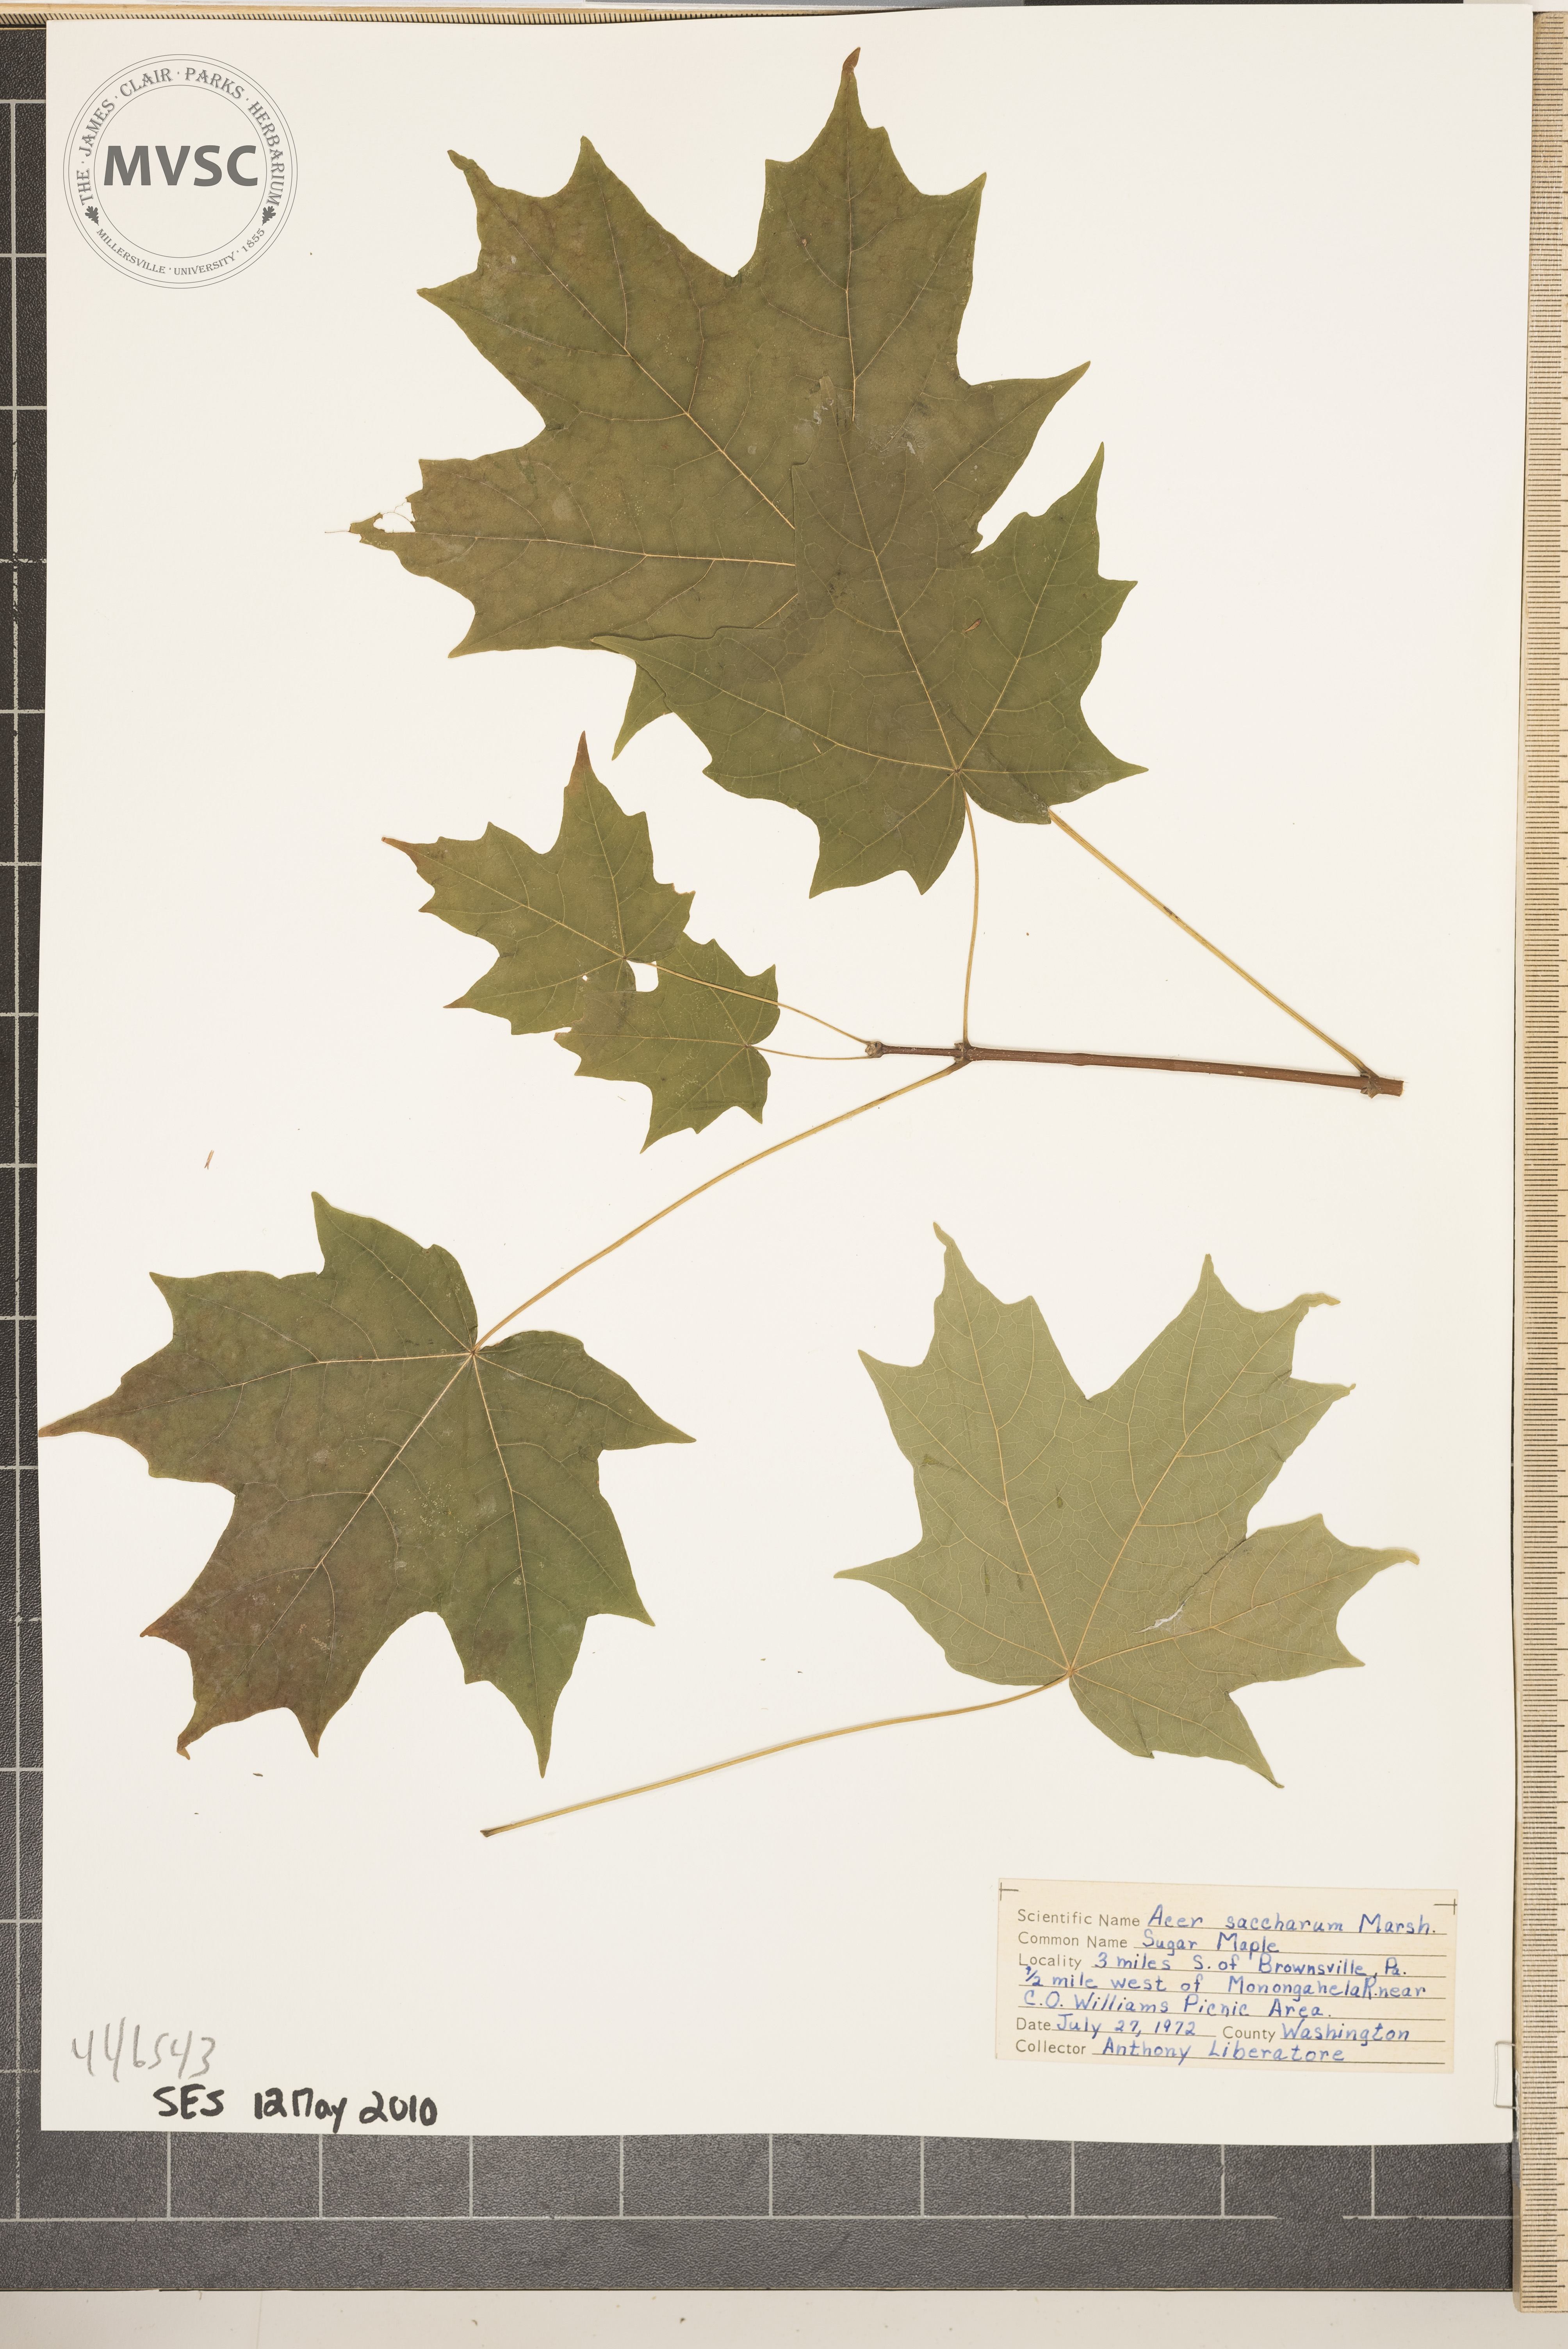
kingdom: Plantae
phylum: Tracheophyta
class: Magnoliopsida
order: Sapindales
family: Sapindaceae
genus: Acer
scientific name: Acer saccharum
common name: Sugar maple
